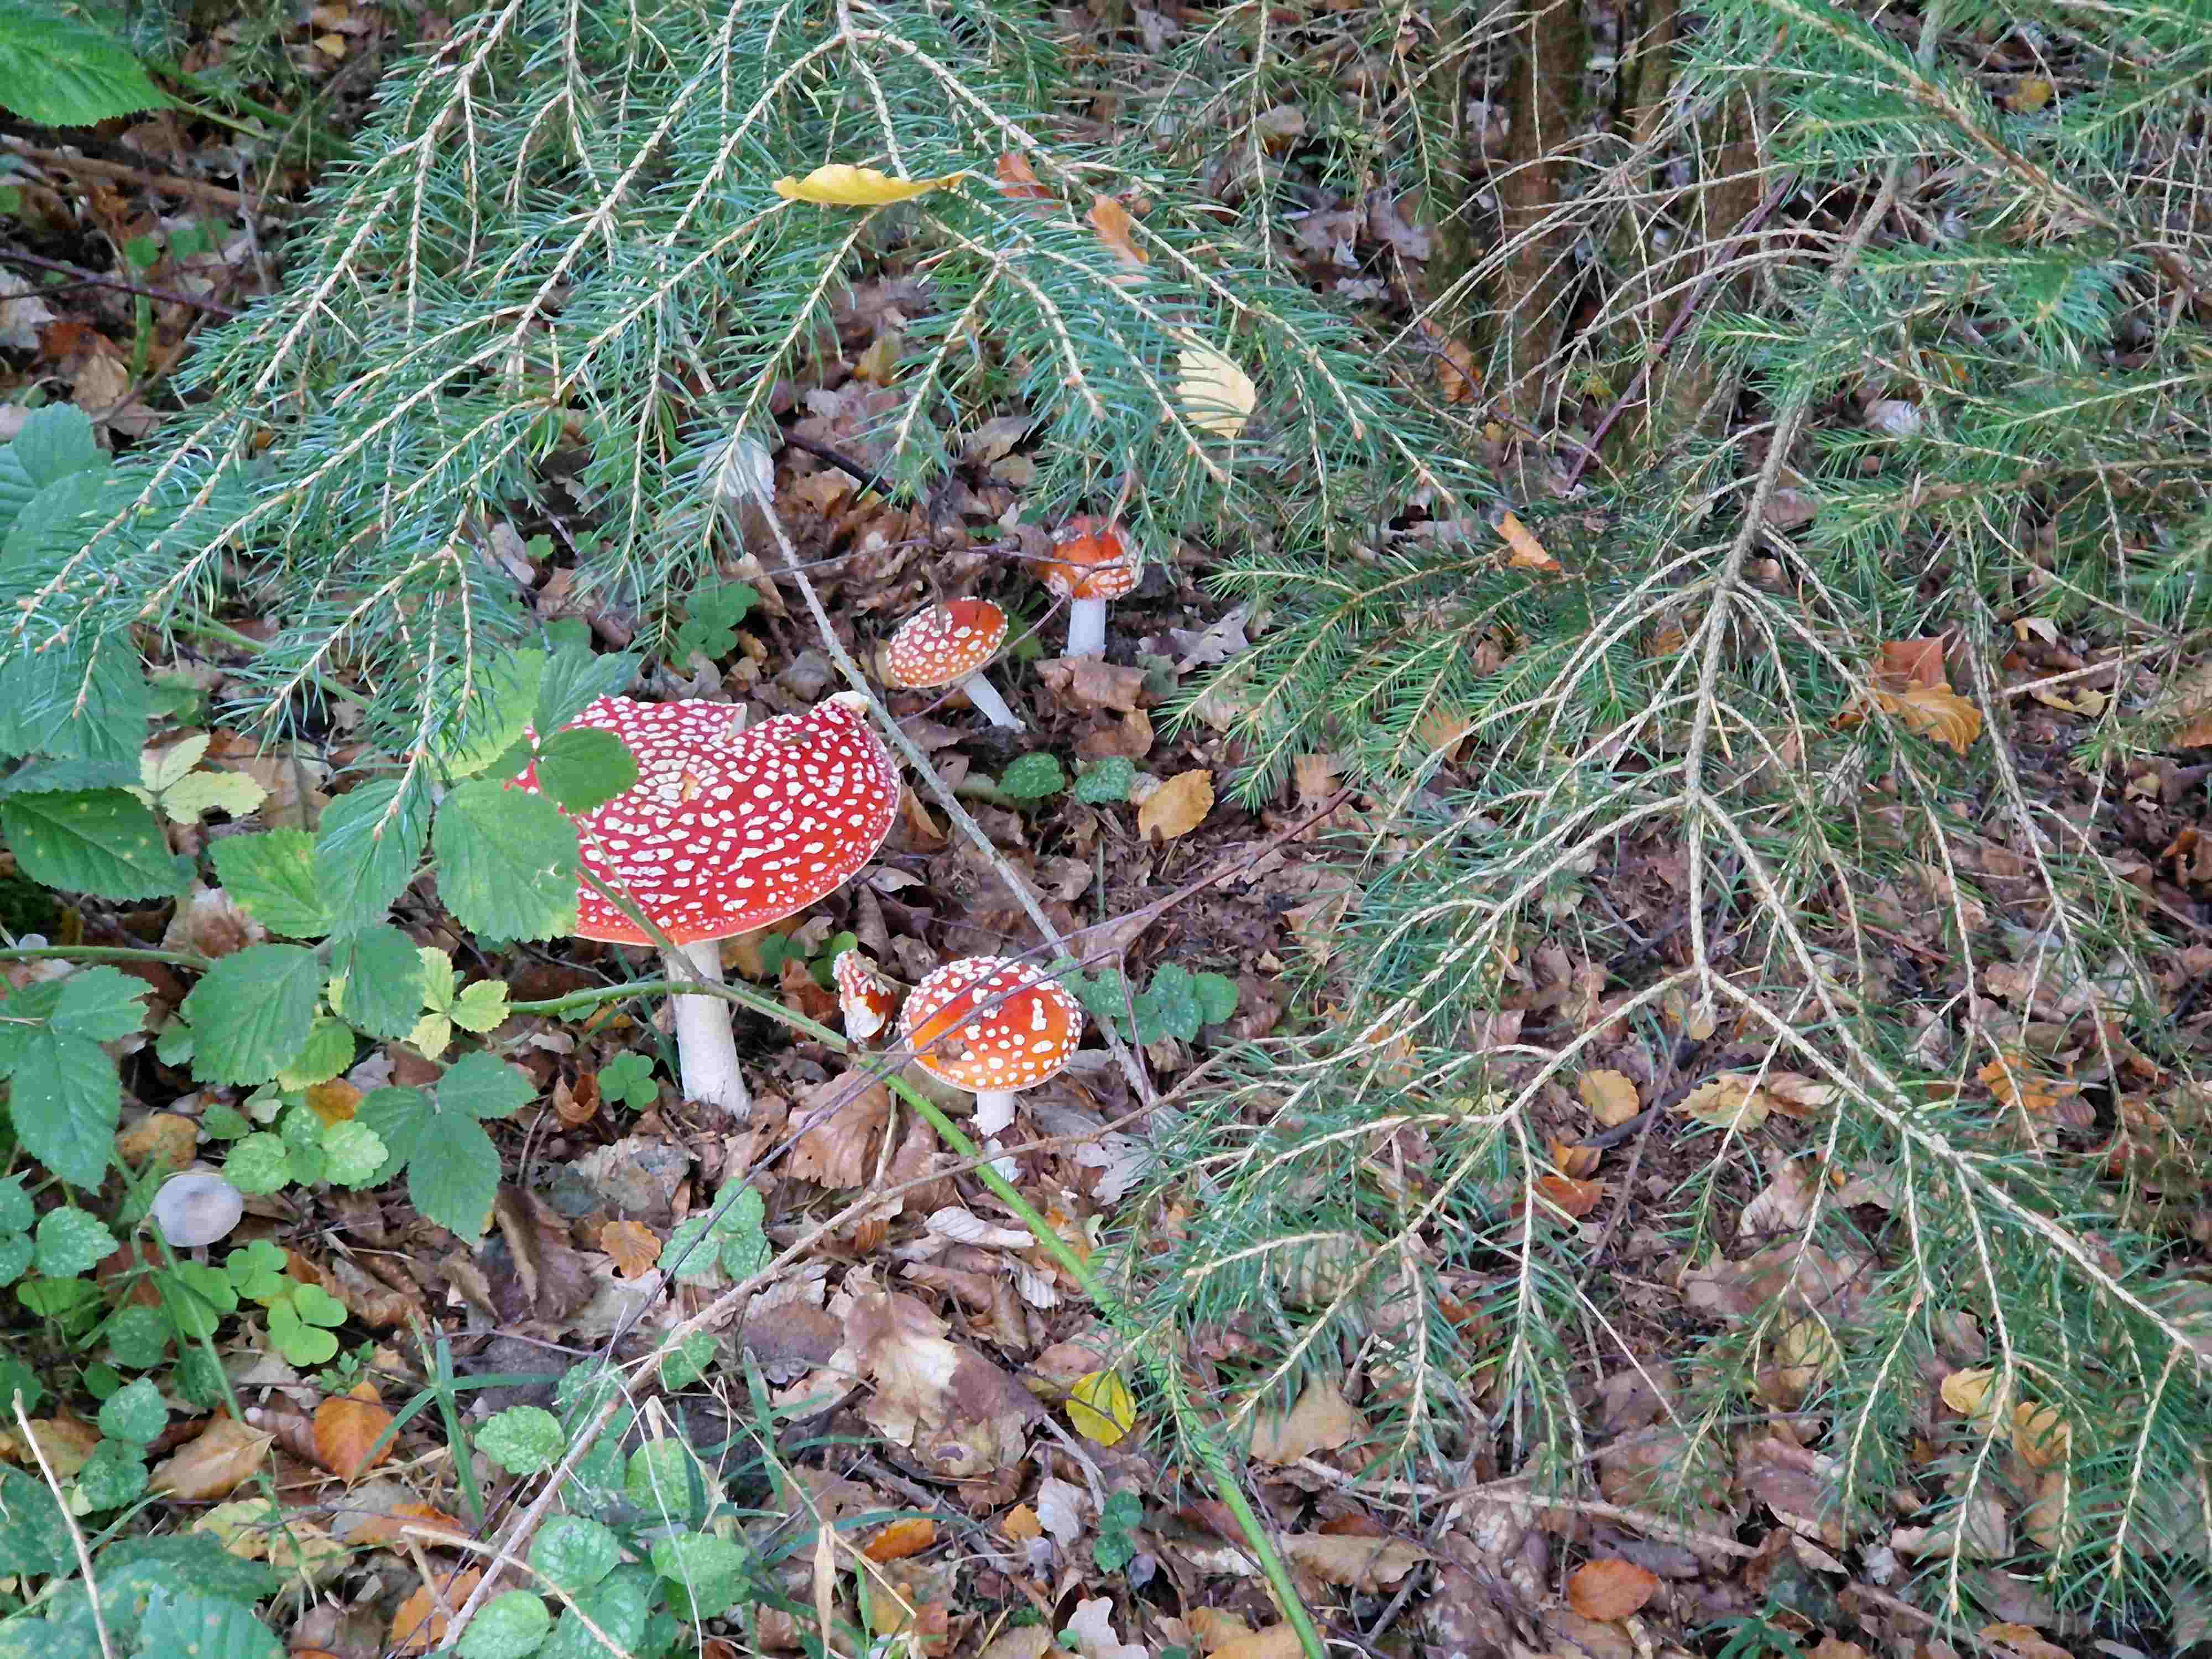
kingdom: Fungi
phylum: Basidiomycota
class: Agaricomycetes
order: Agaricales
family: Amanitaceae
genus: Amanita
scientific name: Amanita muscaria
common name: rød fluesvamp
